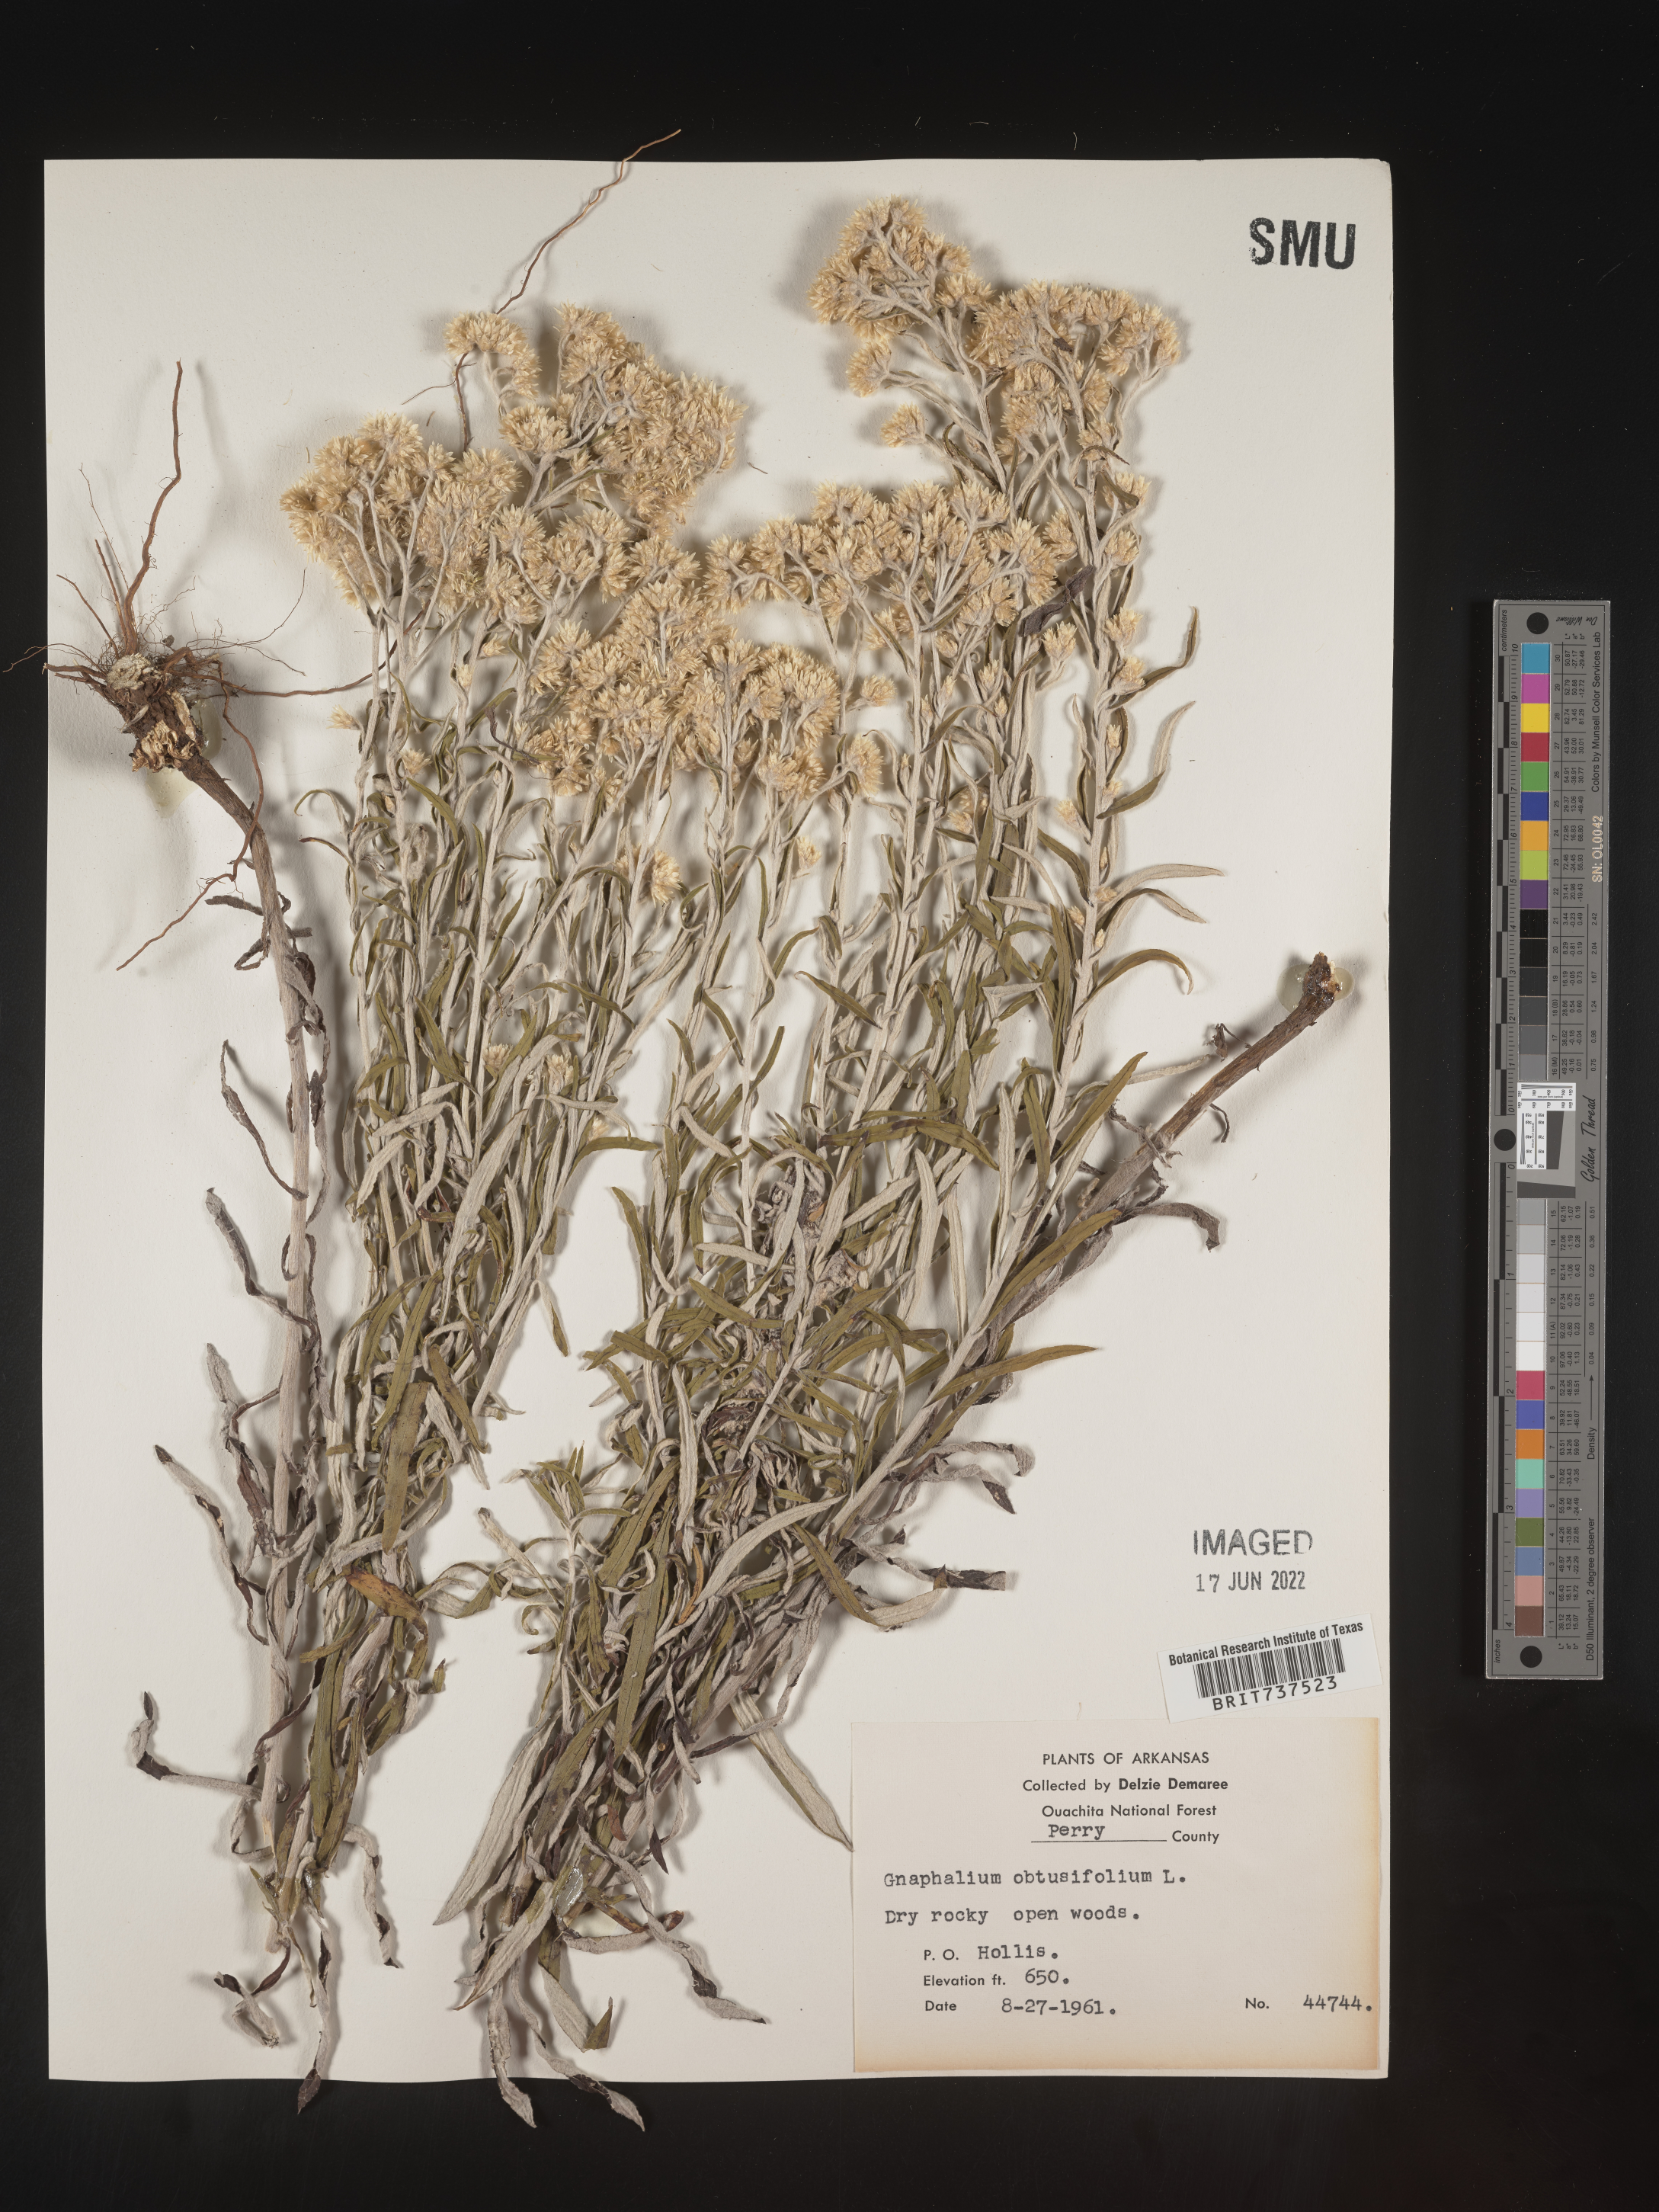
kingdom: Plantae
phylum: Tracheophyta
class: Magnoliopsida
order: Asterales
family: Asteraceae
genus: Pseudognaphalium
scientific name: Pseudognaphalium obtusifolium
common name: Eastern rabbit-tobacco
